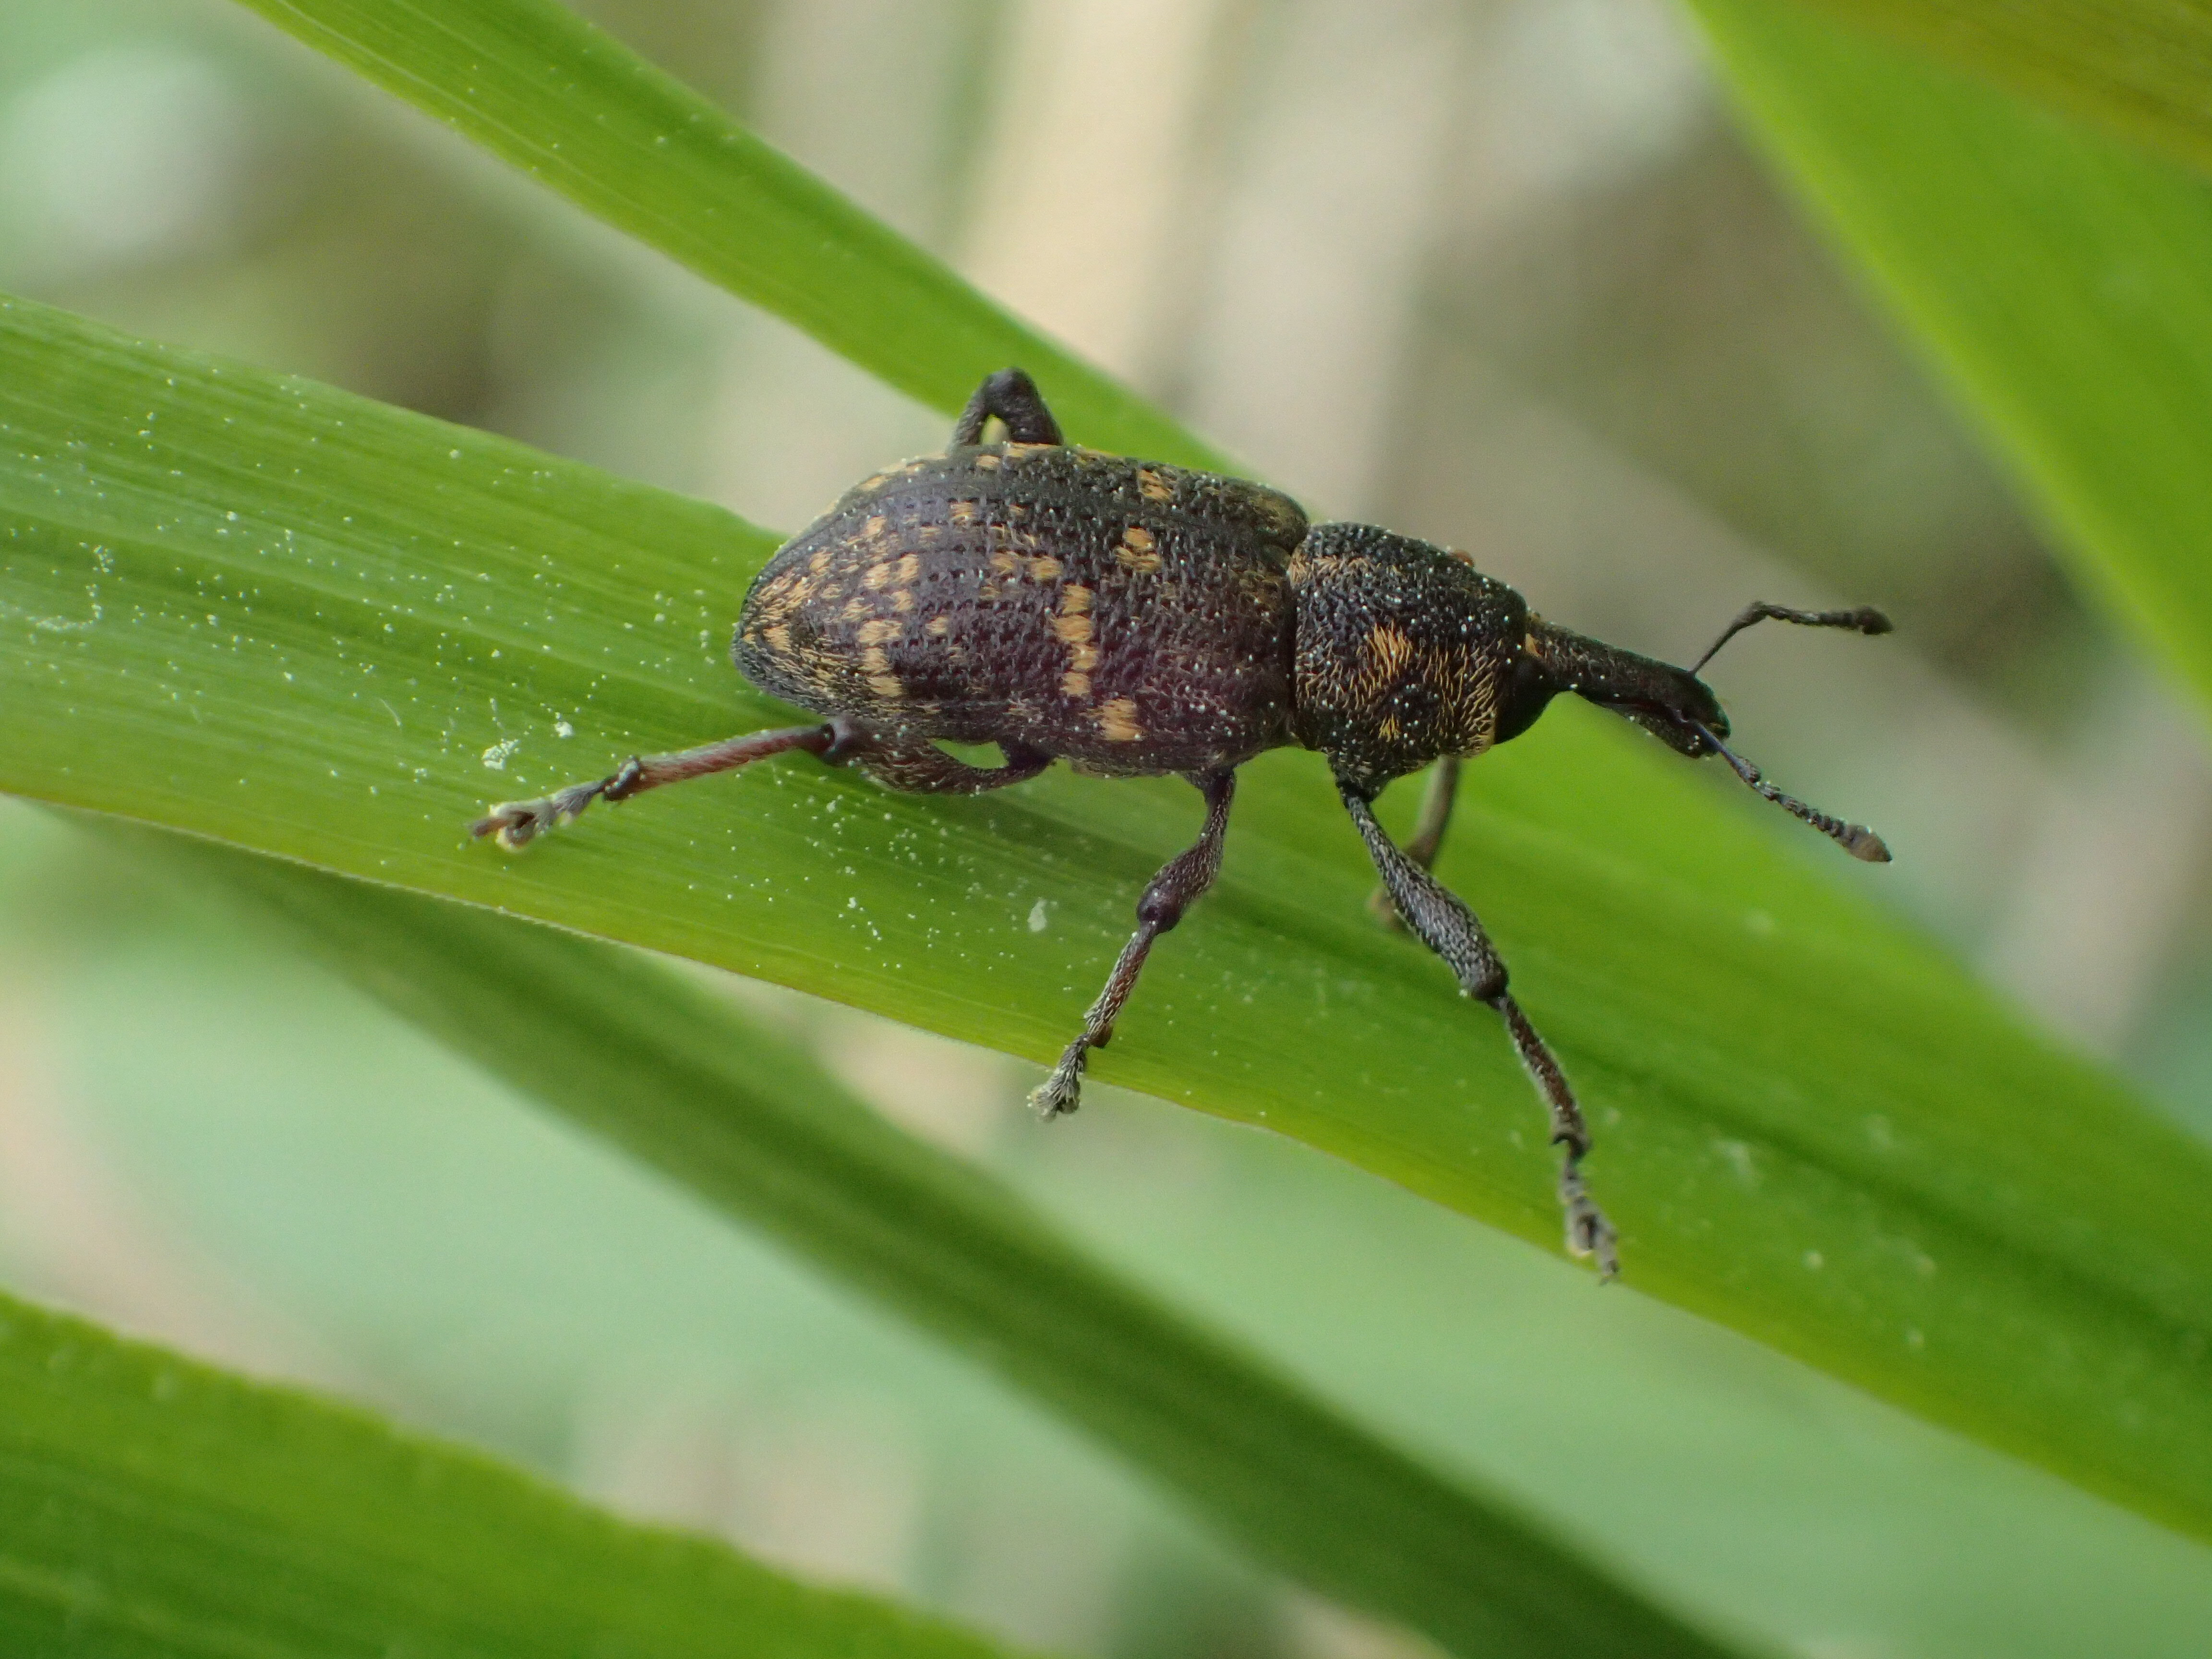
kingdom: Animalia
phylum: Arthropoda
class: Insecta
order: Coleoptera
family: Curculionidae
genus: Hylobius
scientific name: Hylobius abietis
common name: Large pine weevil
